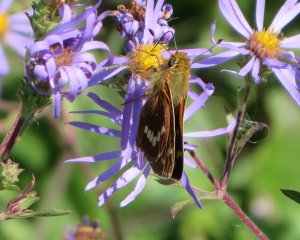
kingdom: Animalia
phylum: Arthropoda
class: Insecta
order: Lepidoptera
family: Hesperiidae
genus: Hesperia
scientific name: Hesperia leonardus
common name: Leonard's Skipper
